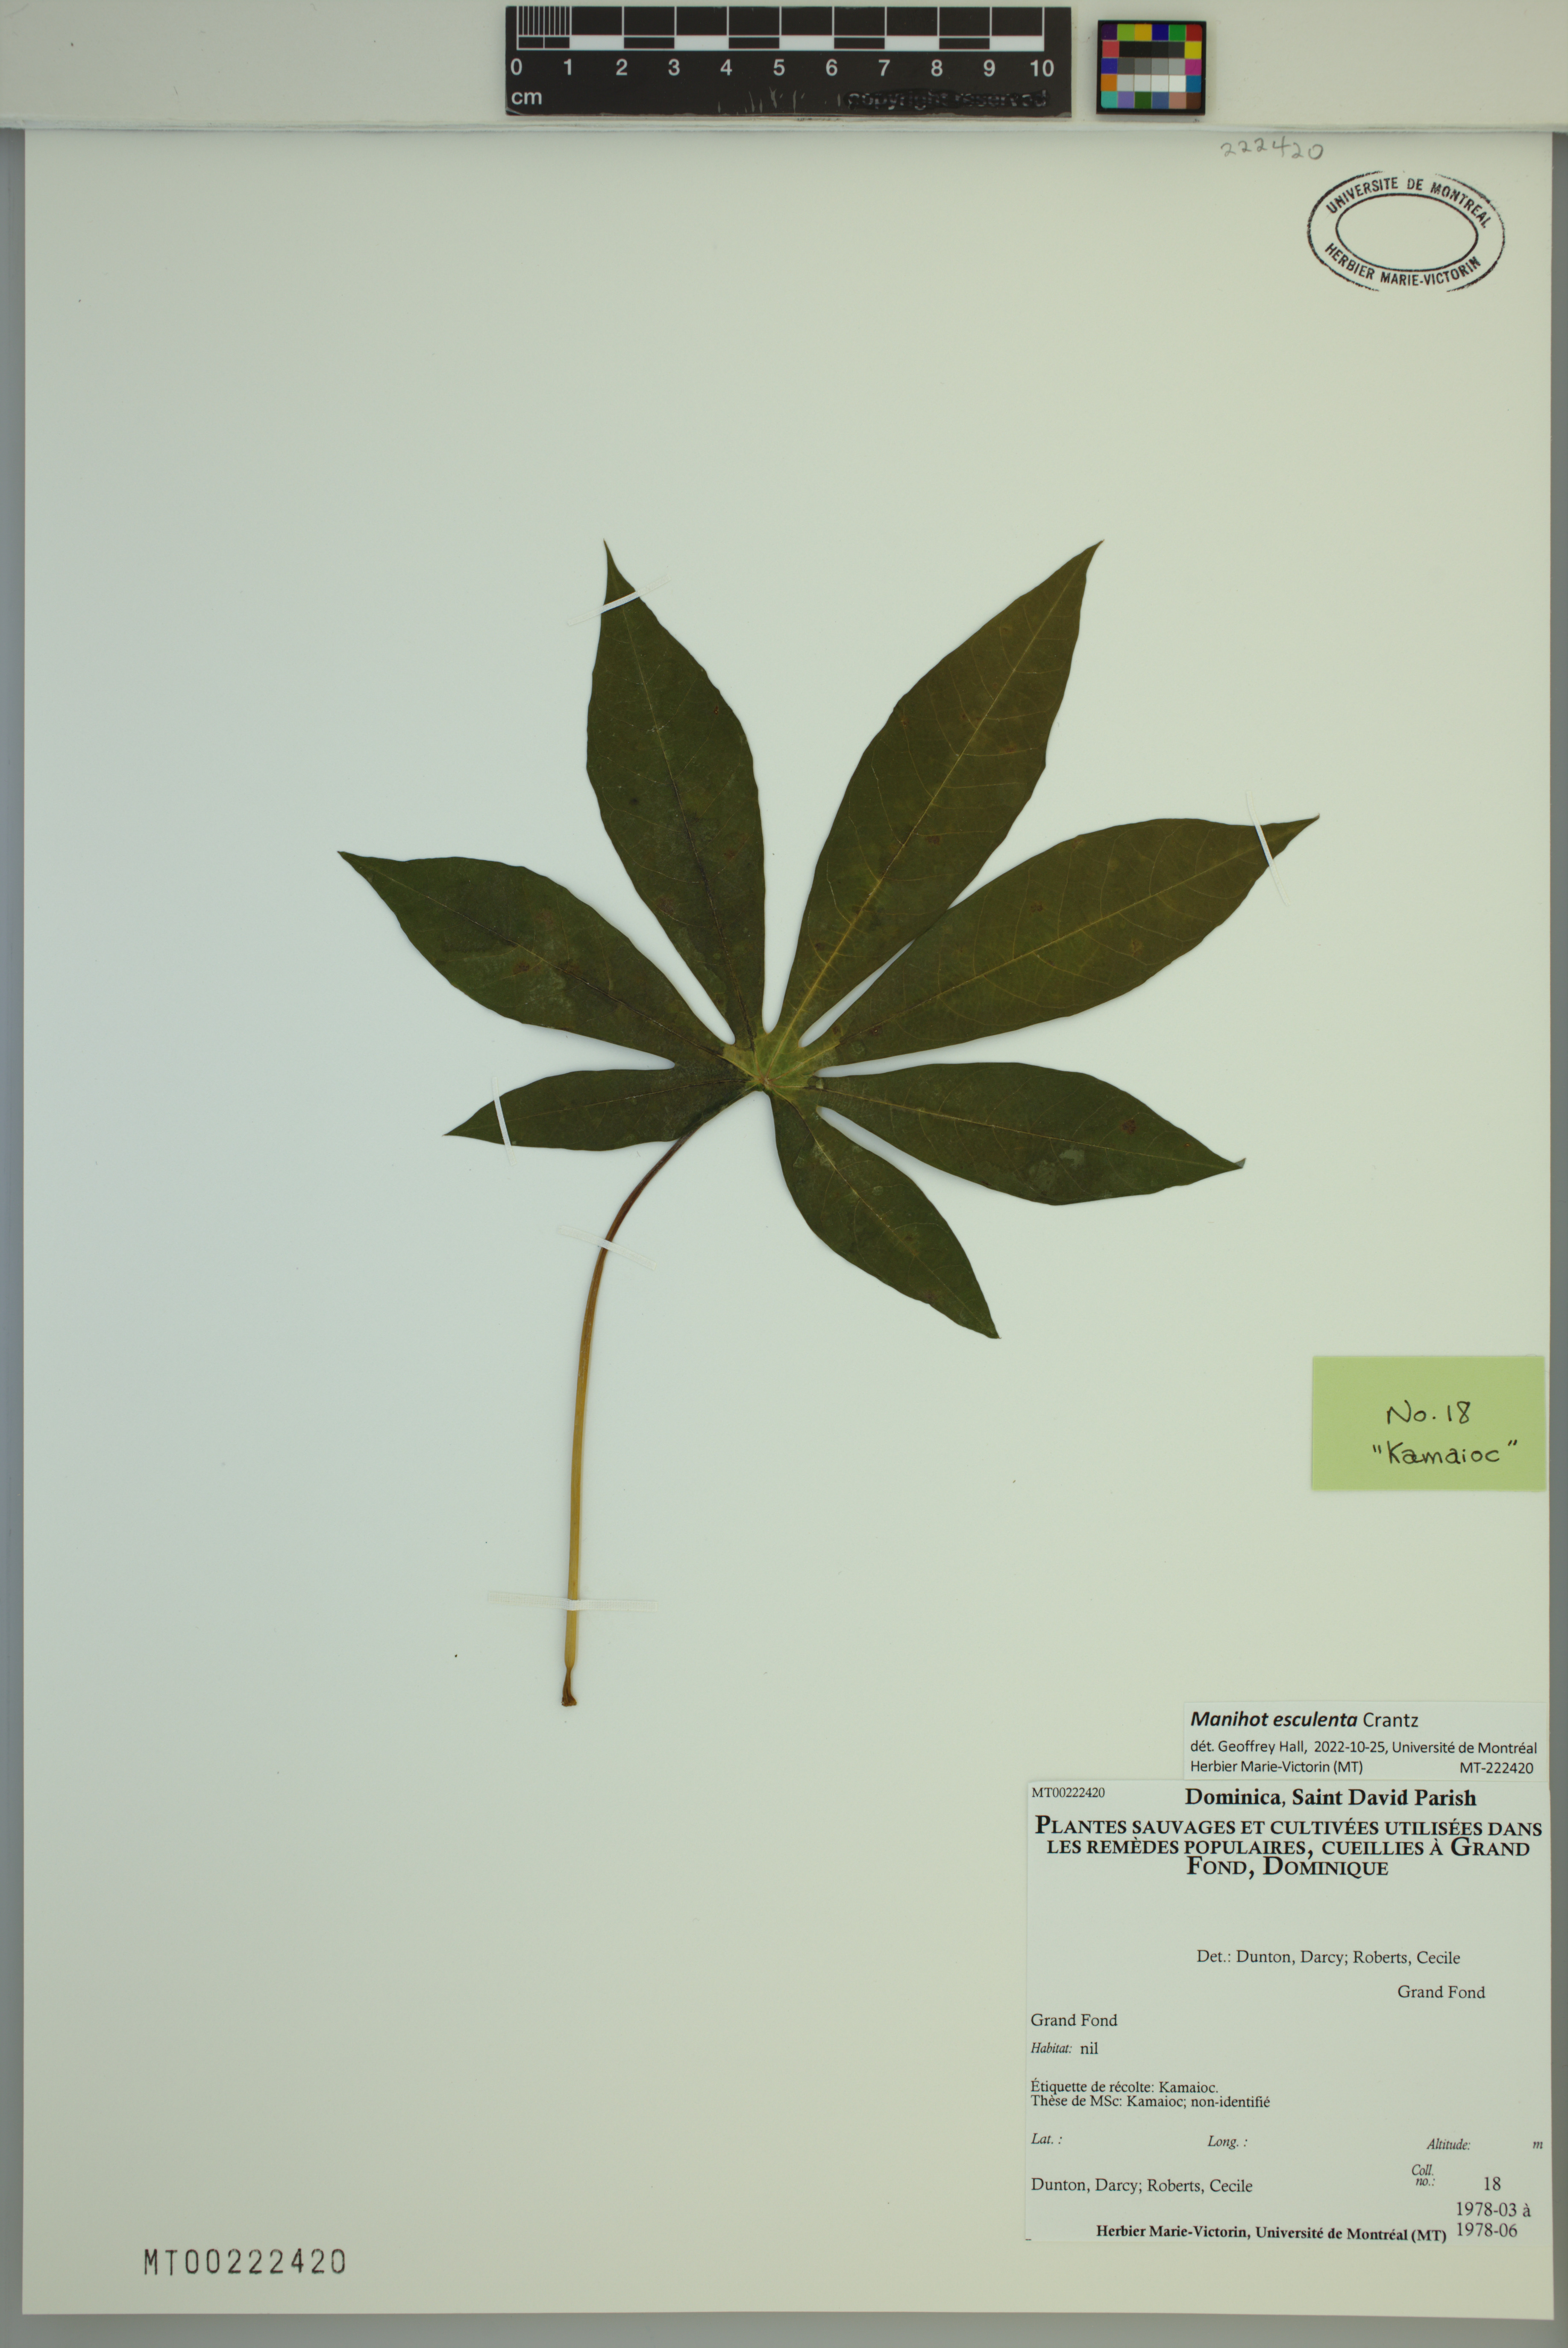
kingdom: Plantae
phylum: Tracheophyta
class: Magnoliopsida
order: Malpighiales
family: Euphorbiaceae
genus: Manihot
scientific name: Manihot esculenta
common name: Cassava
